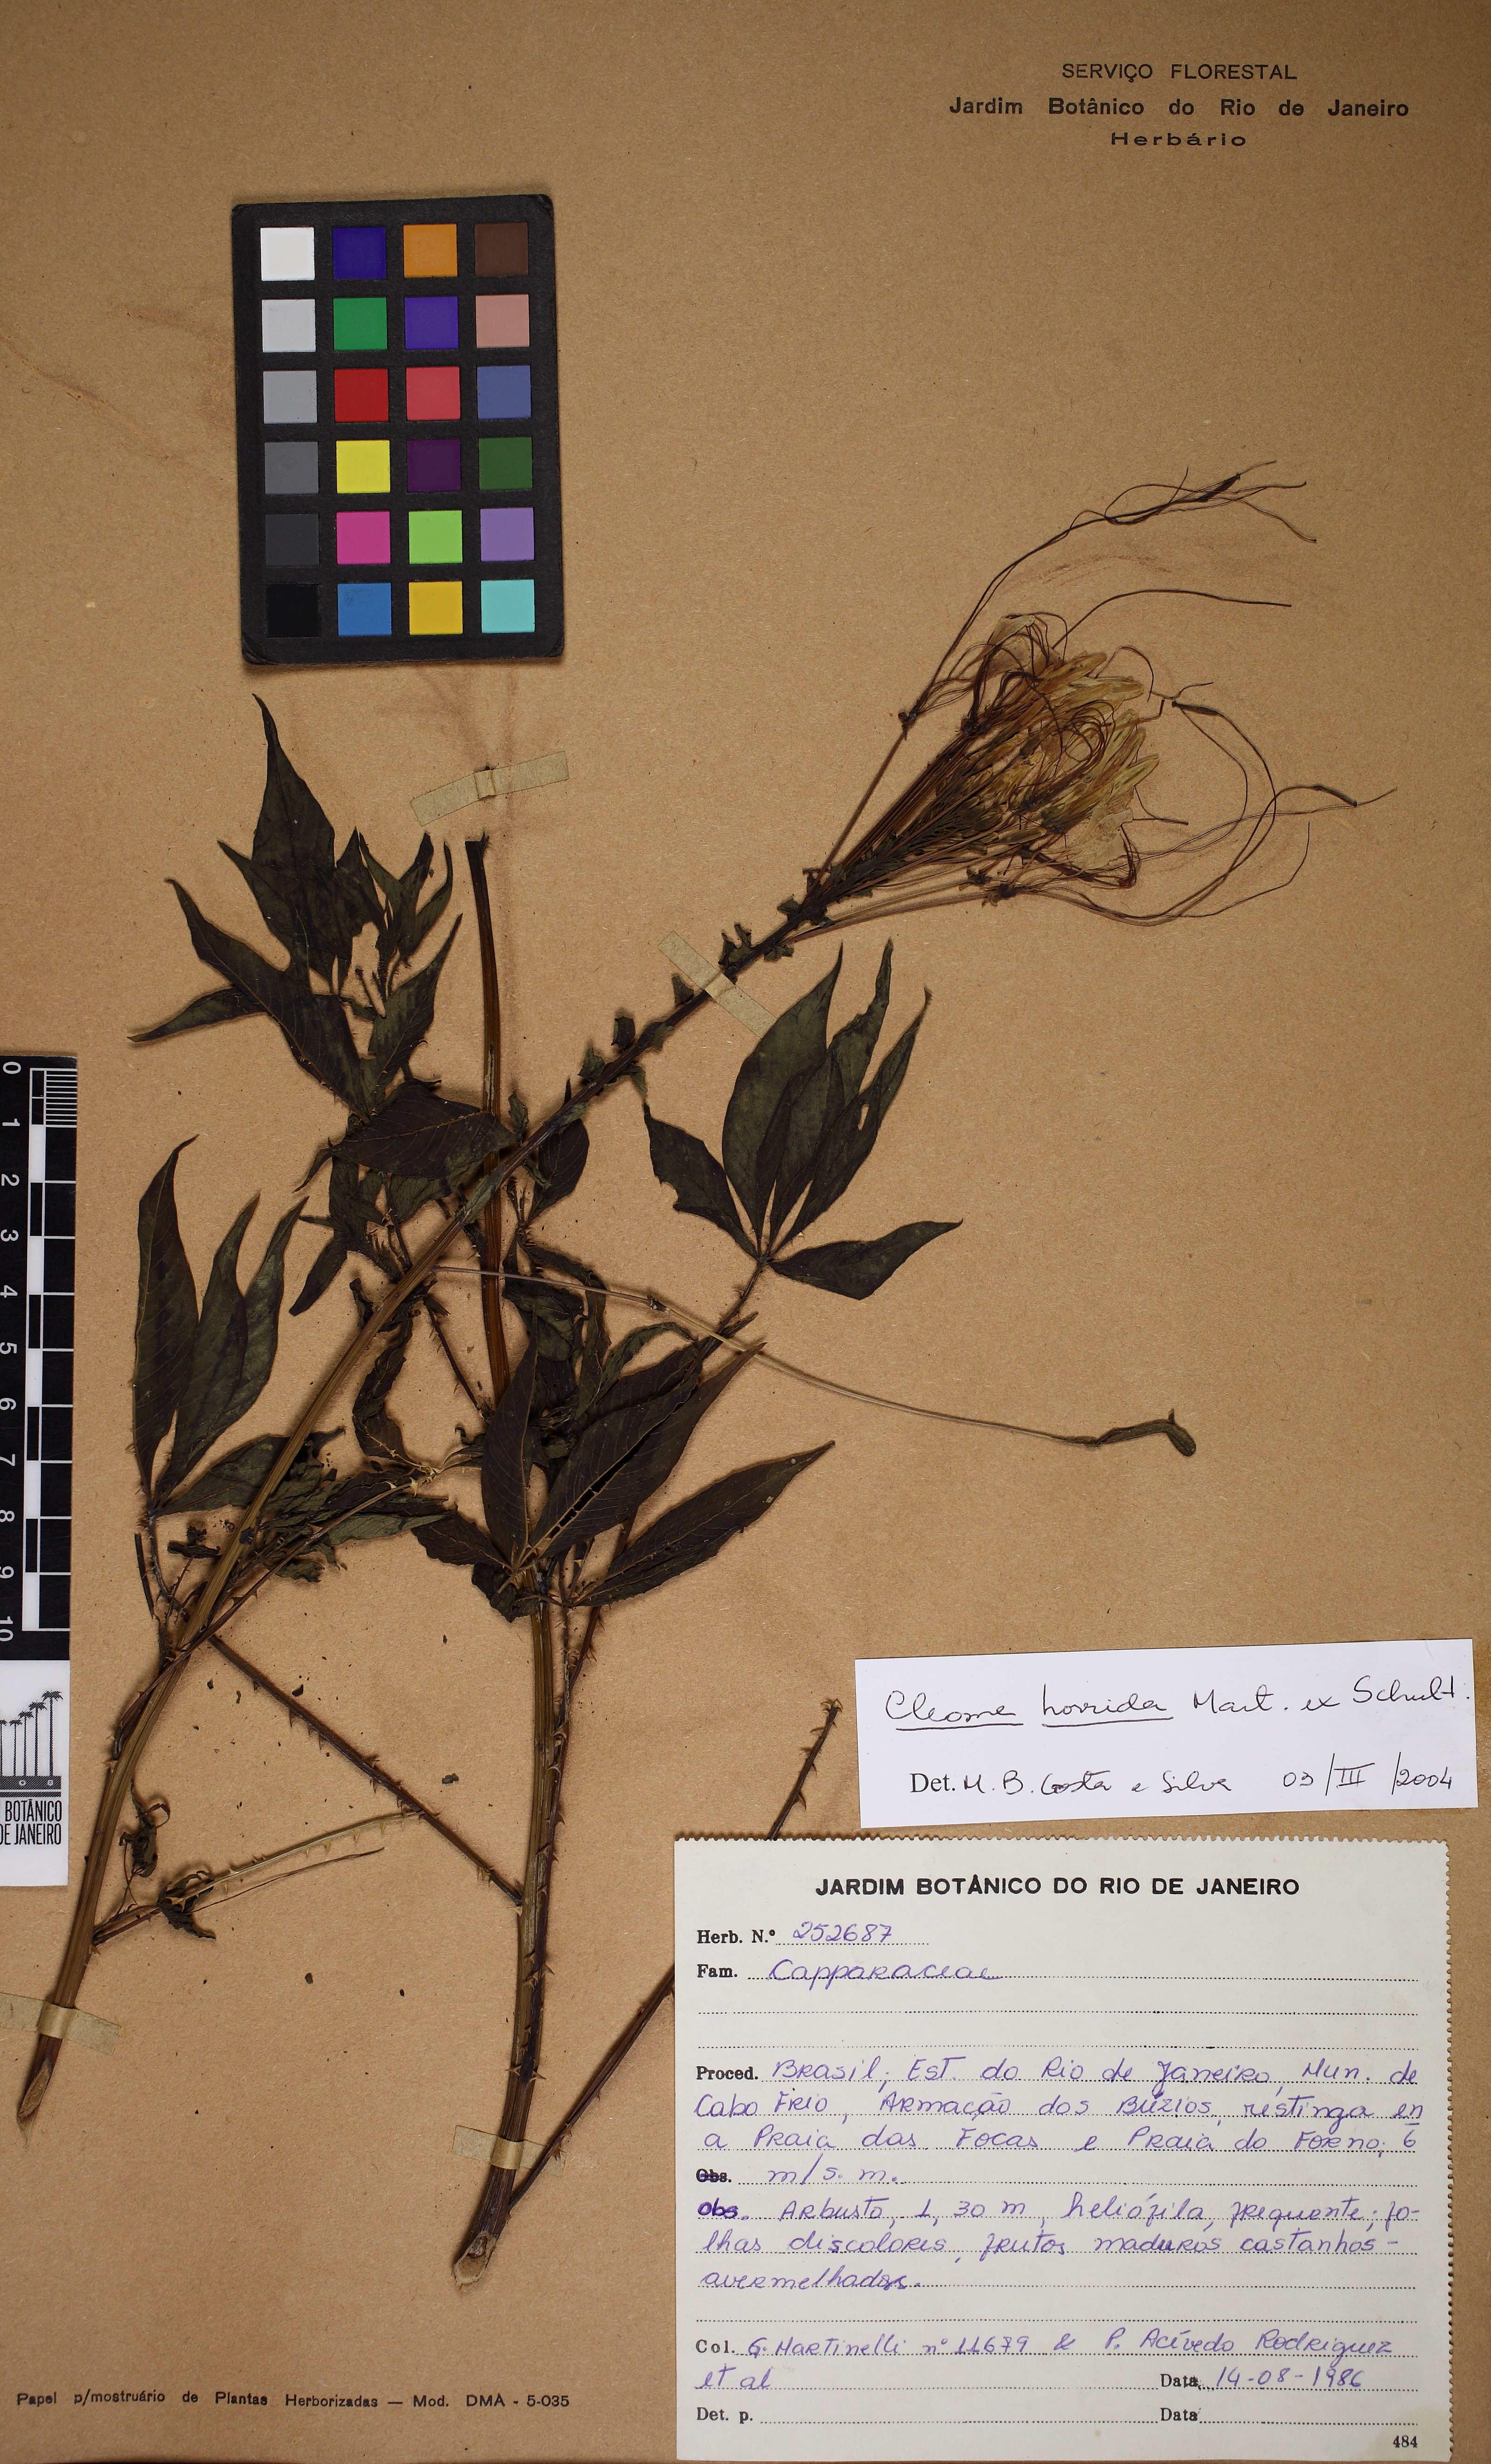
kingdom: Plantae
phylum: Tracheophyta
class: Magnoliopsida
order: Brassicales
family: Cleomaceae
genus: Tarenaya
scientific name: Tarenaya horrida
